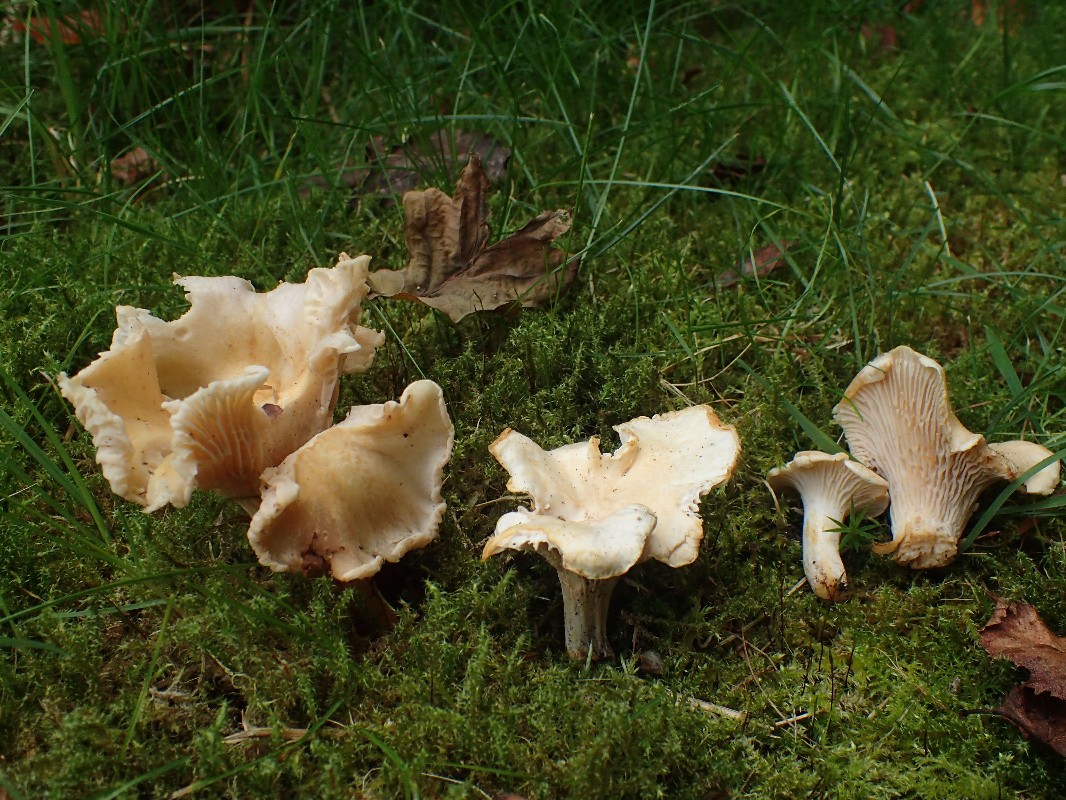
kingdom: Fungi
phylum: Basidiomycota
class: Agaricomycetes
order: Cantharellales
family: Hydnaceae
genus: Cantharellus
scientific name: Cantharellus
